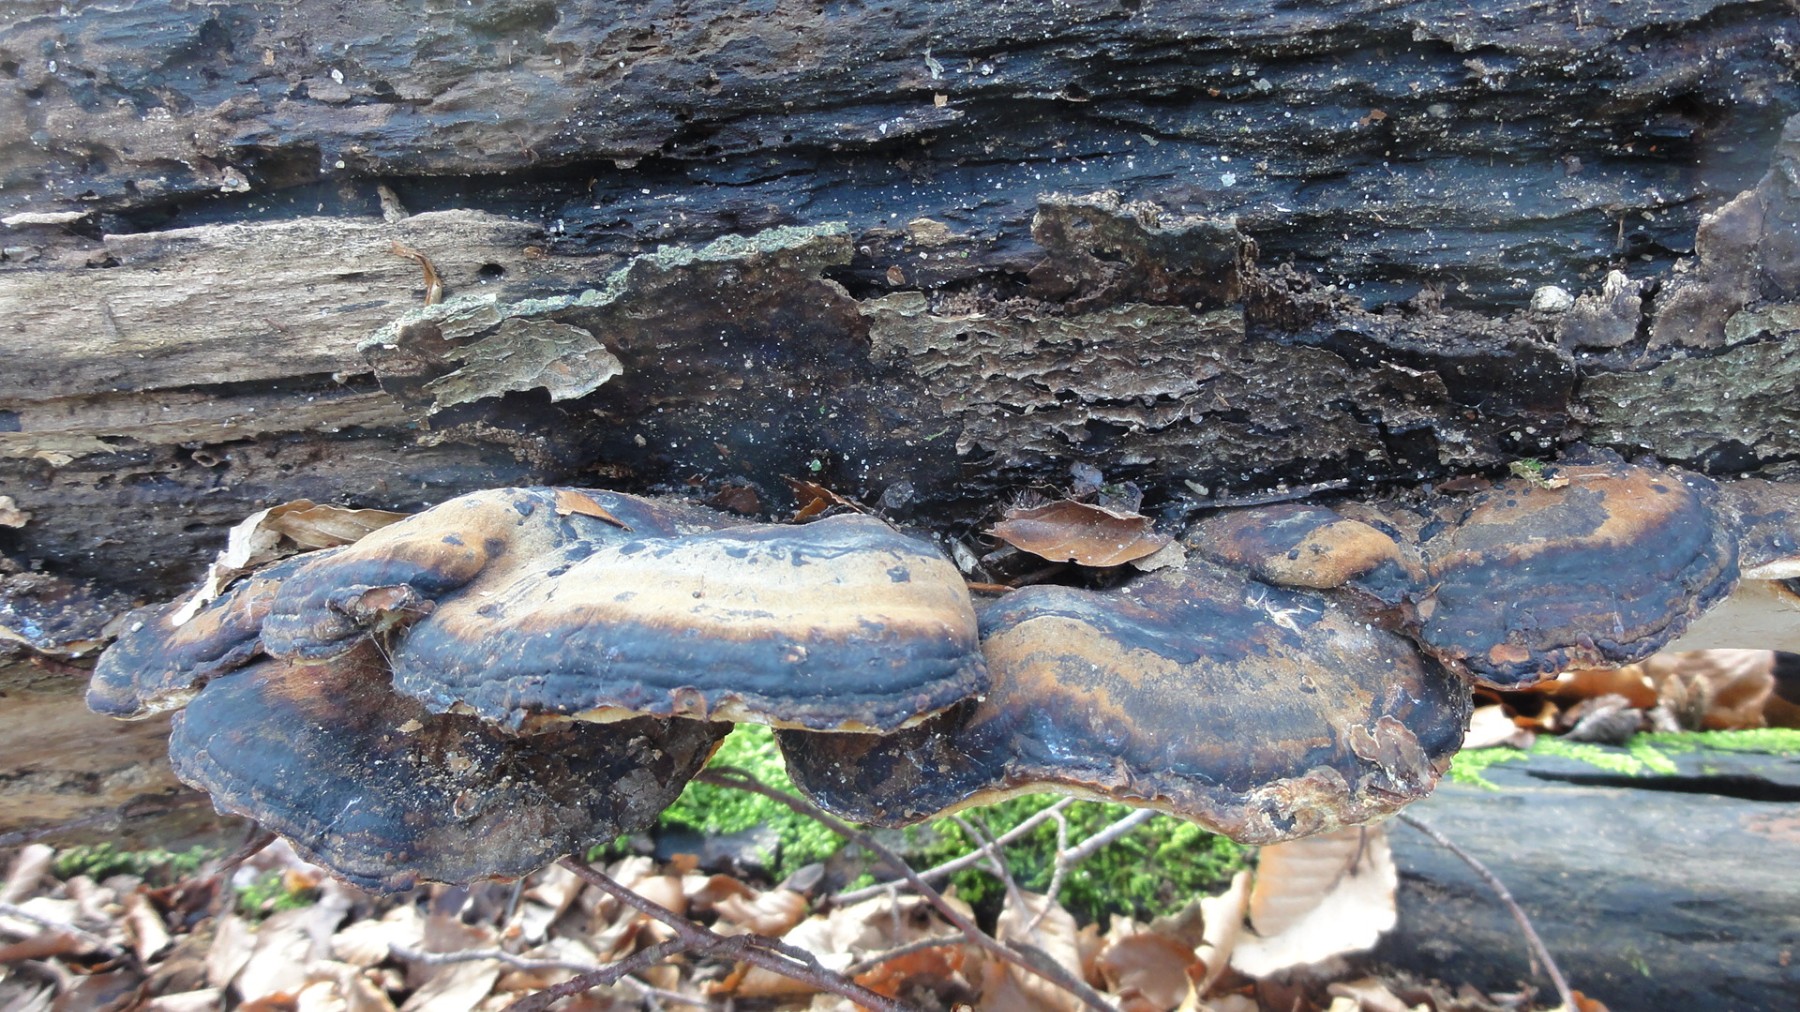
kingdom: Fungi
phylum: Basidiomycota
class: Agaricomycetes
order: Polyporales
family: Ischnodermataceae
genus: Ischnoderma
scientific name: Ischnoderma resinosum
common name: løv-tjæreporesvamp
